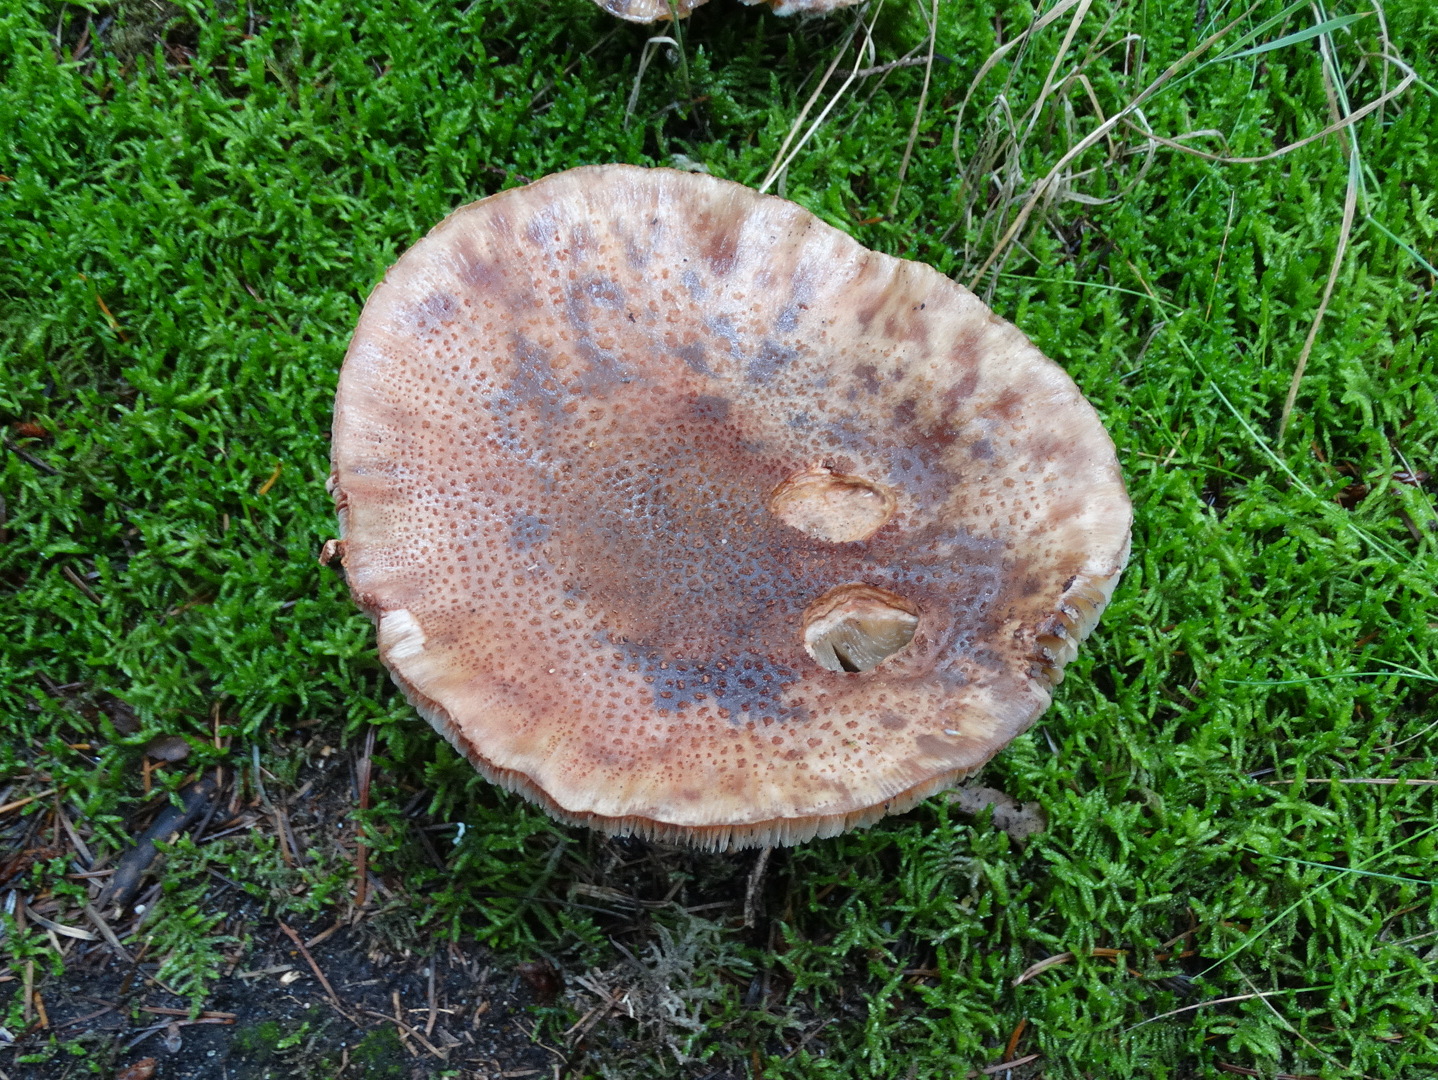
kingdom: Fungi
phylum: Basidiomycota
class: Agaricomycetes
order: Agaricales
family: Amanitaceae
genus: Amanita
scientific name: Amanita rubescens
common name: rødmende fluesvamp
